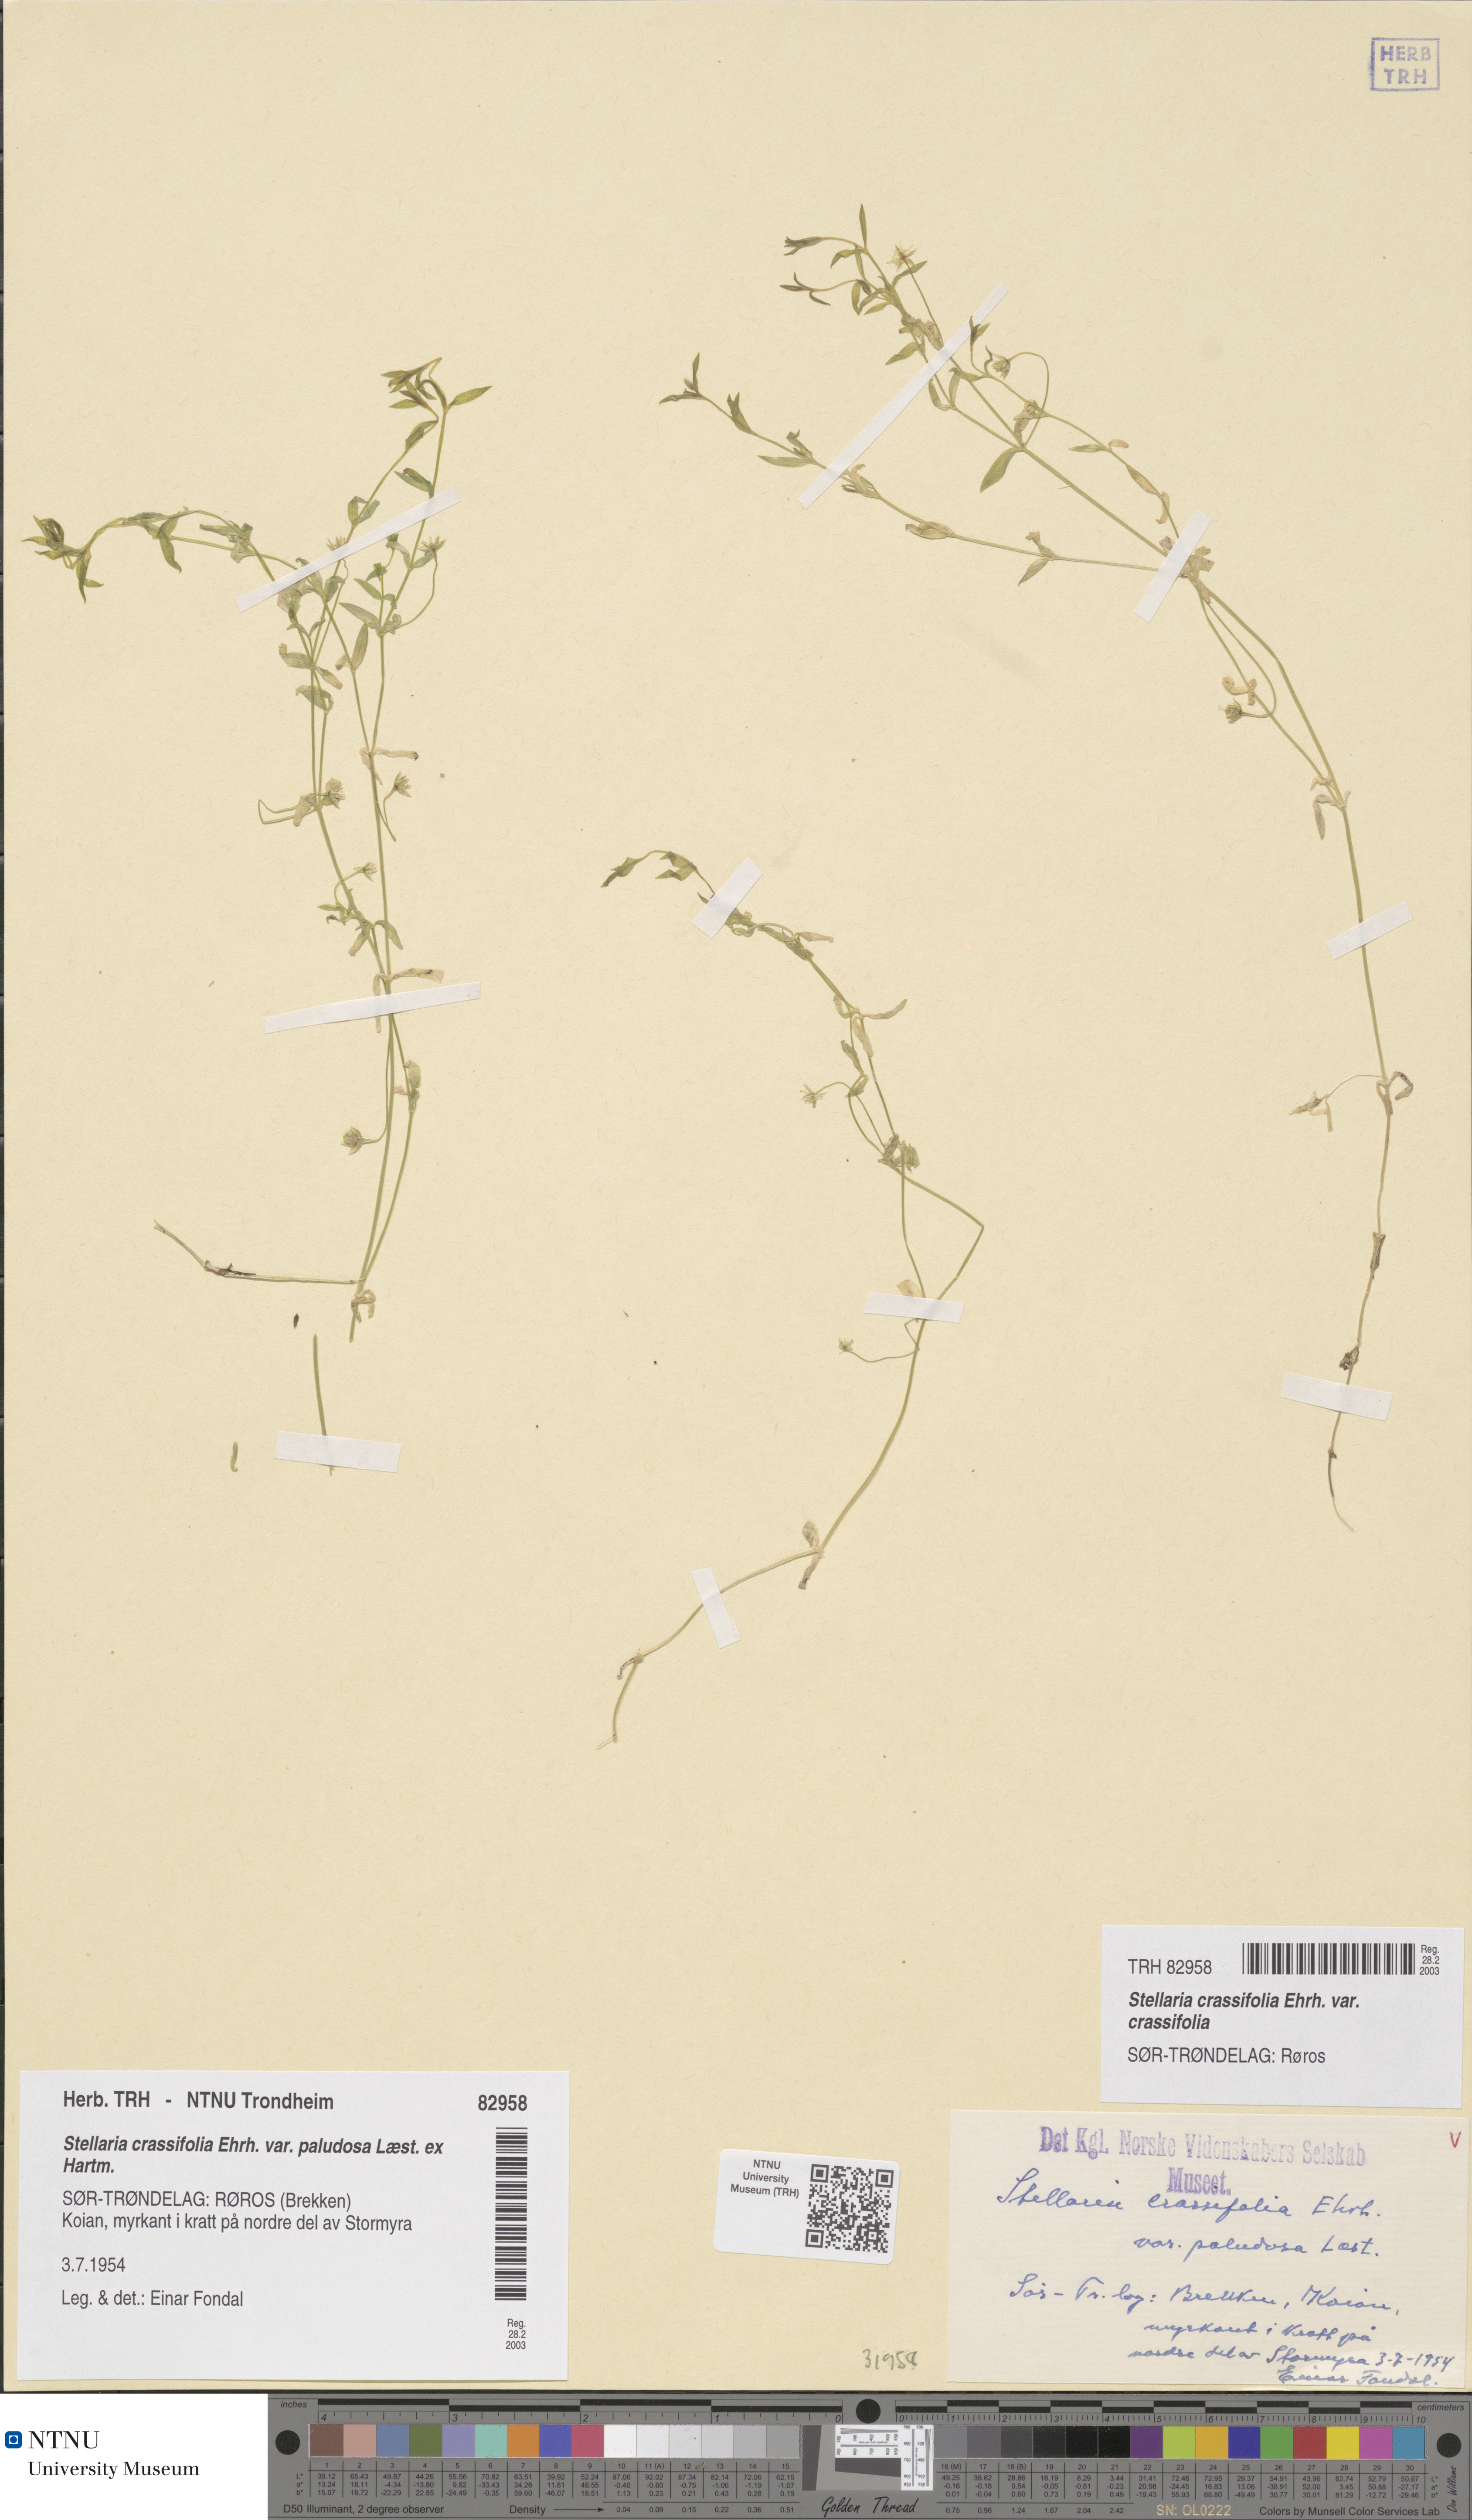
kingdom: Plantae
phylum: Tracheophyta
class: Magnoliopsida
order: Caryophyllales
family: Caryophyllaceae
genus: Stellaria
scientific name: Stellaria crassifolia
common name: Fleshy starwort
